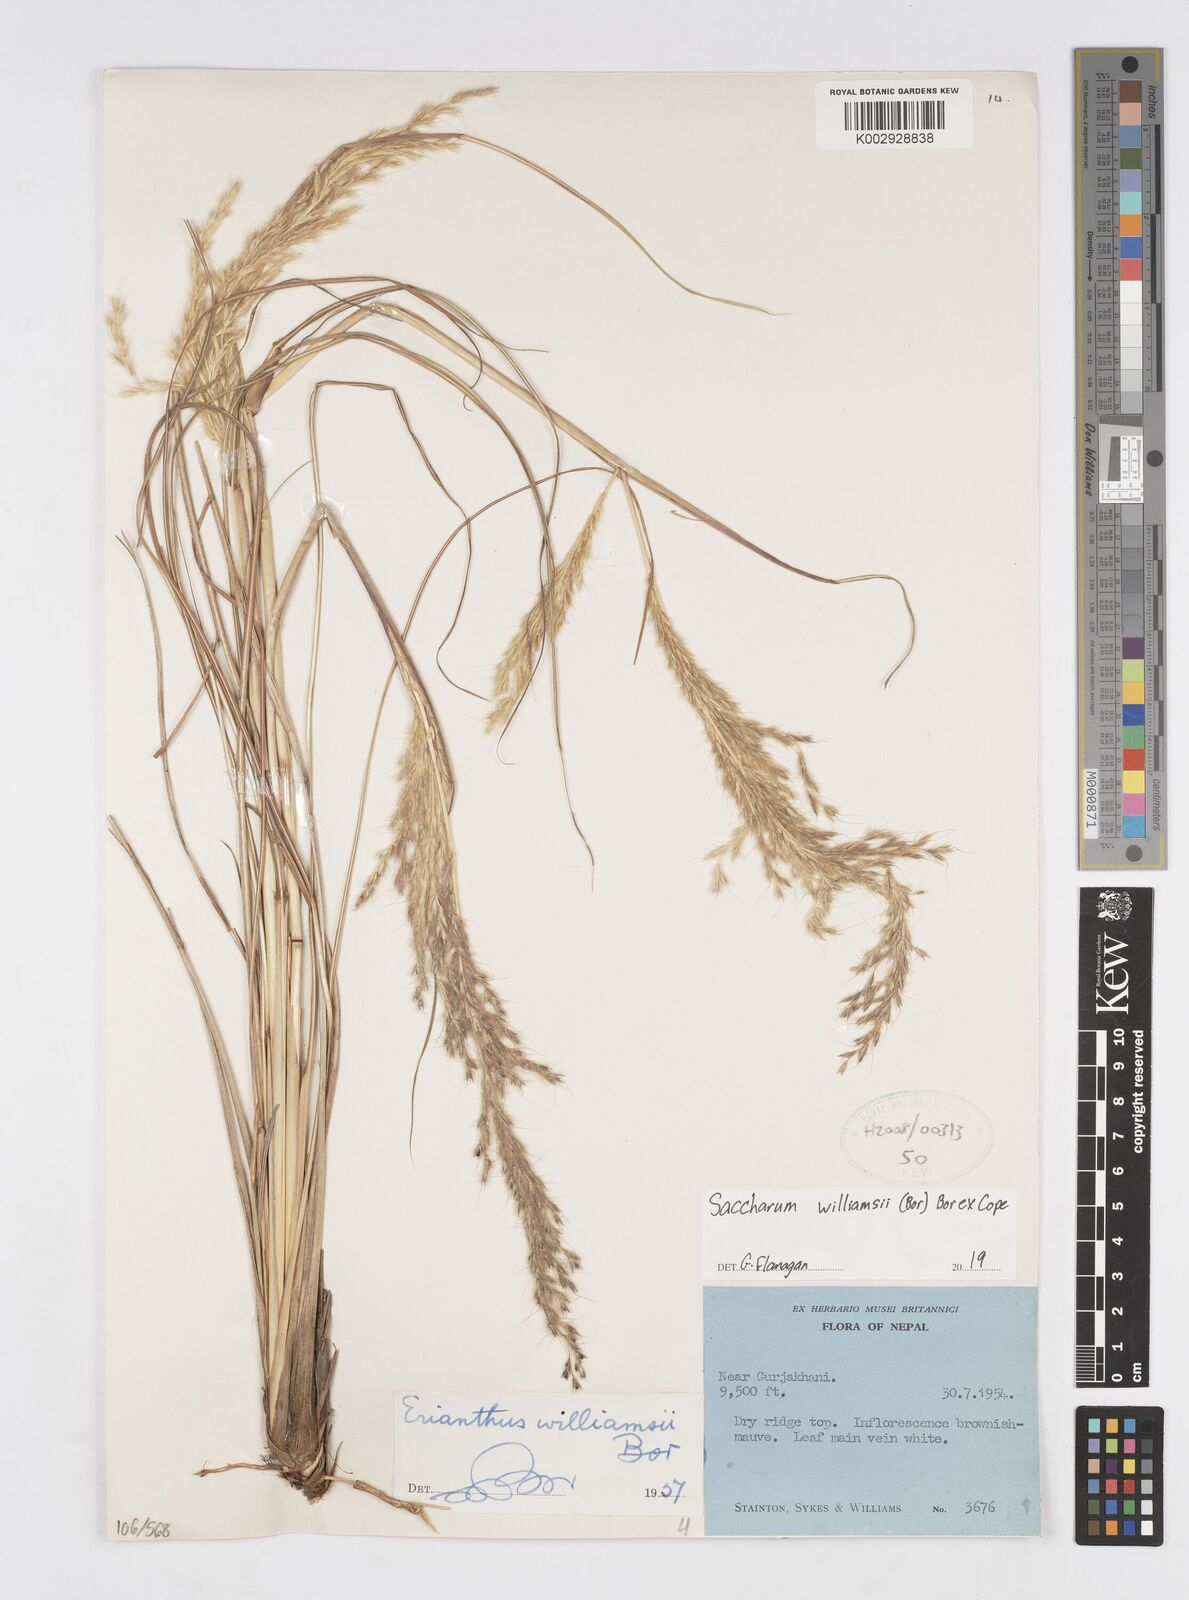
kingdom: Plantae
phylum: Tracheophyta
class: Liliopsida
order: Poales
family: Poaceae
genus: Saccharum
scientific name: Saccharum williamsii
